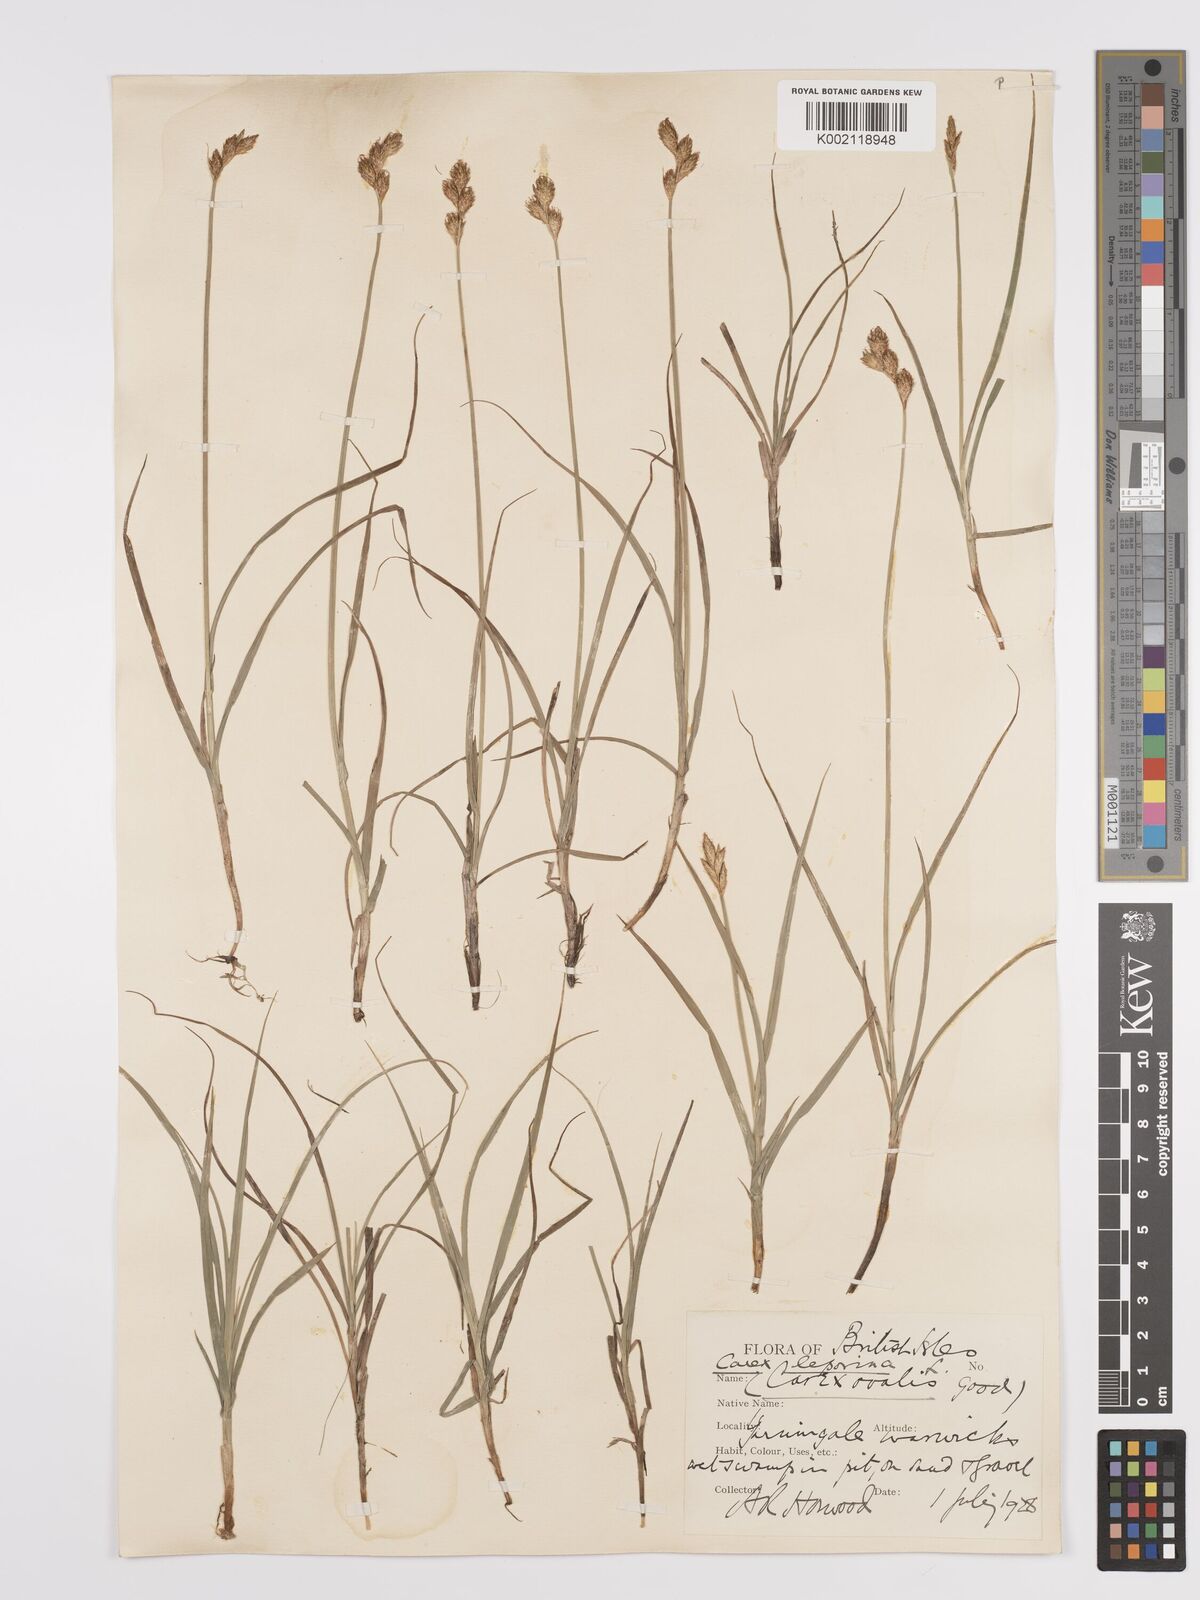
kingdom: Plantae
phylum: Tracheophyta
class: Liliopsida
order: Poales
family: Cyperaceae
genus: Carex
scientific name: Carex leporina
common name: Oval sedge
